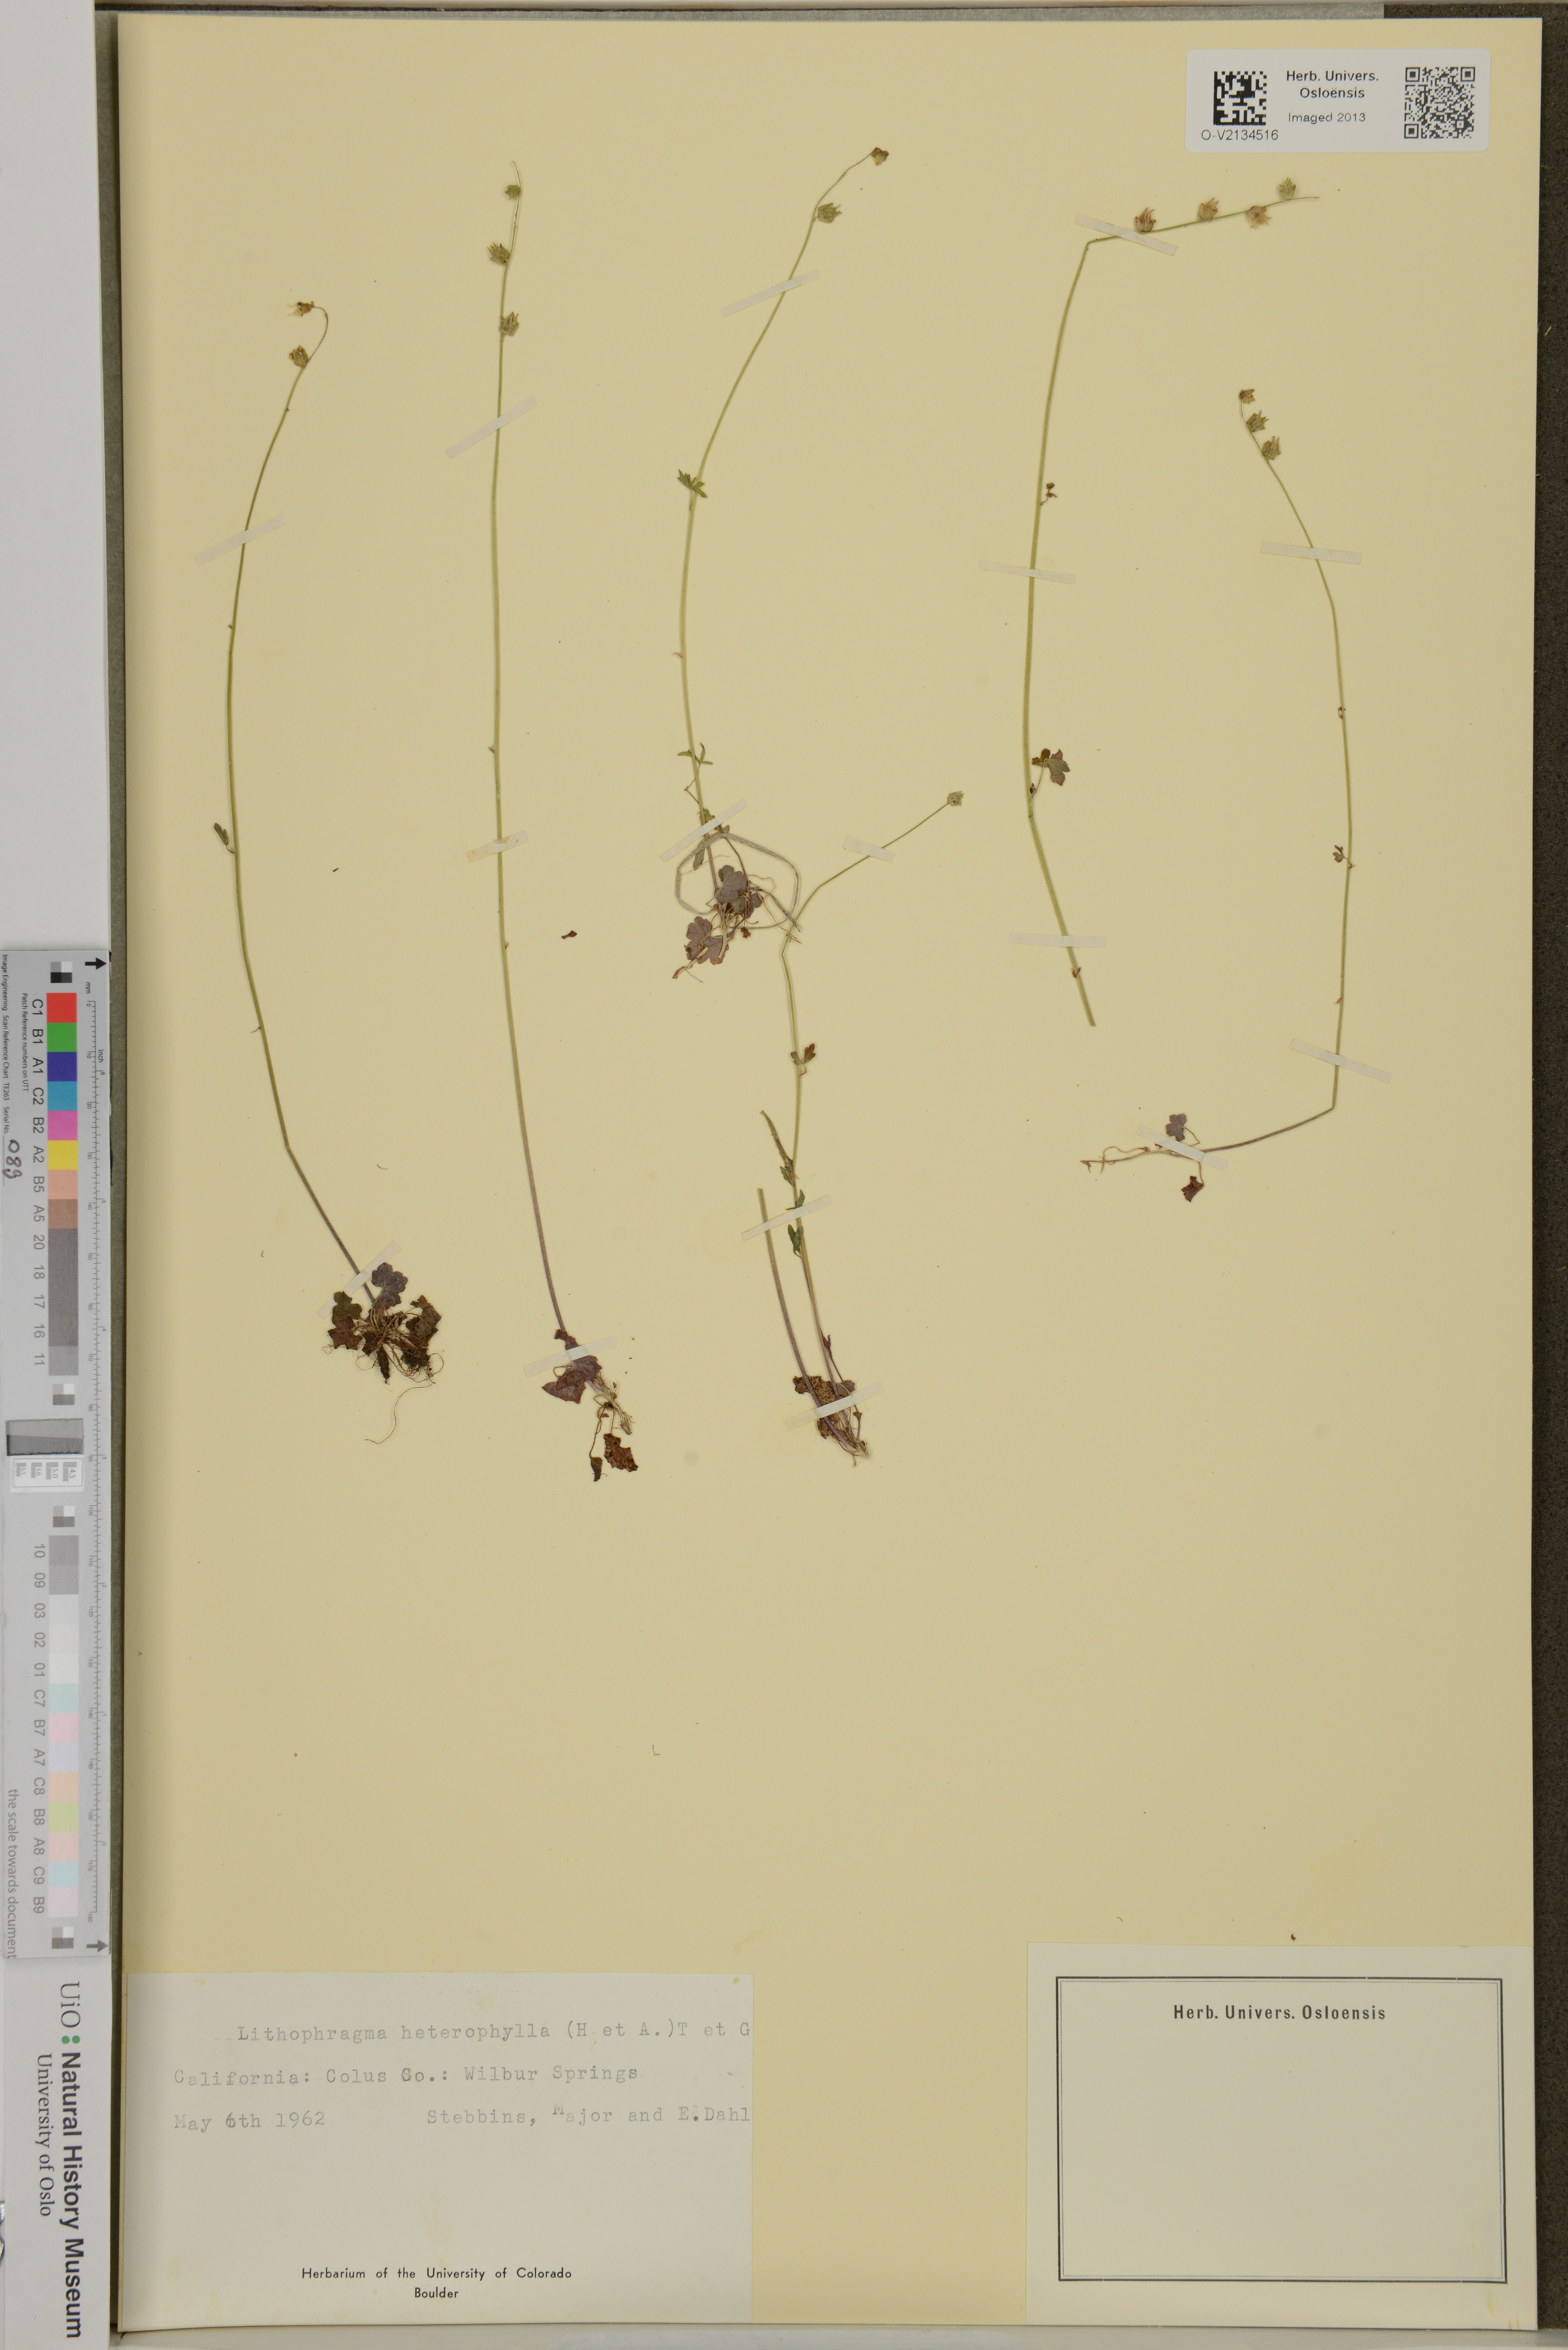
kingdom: Plantae
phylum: Tracheophyta
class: Magnoliopsida
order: Saxifragales
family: Saxifragaceae
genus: Lithophragma
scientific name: Lithophragma heterophyllum
